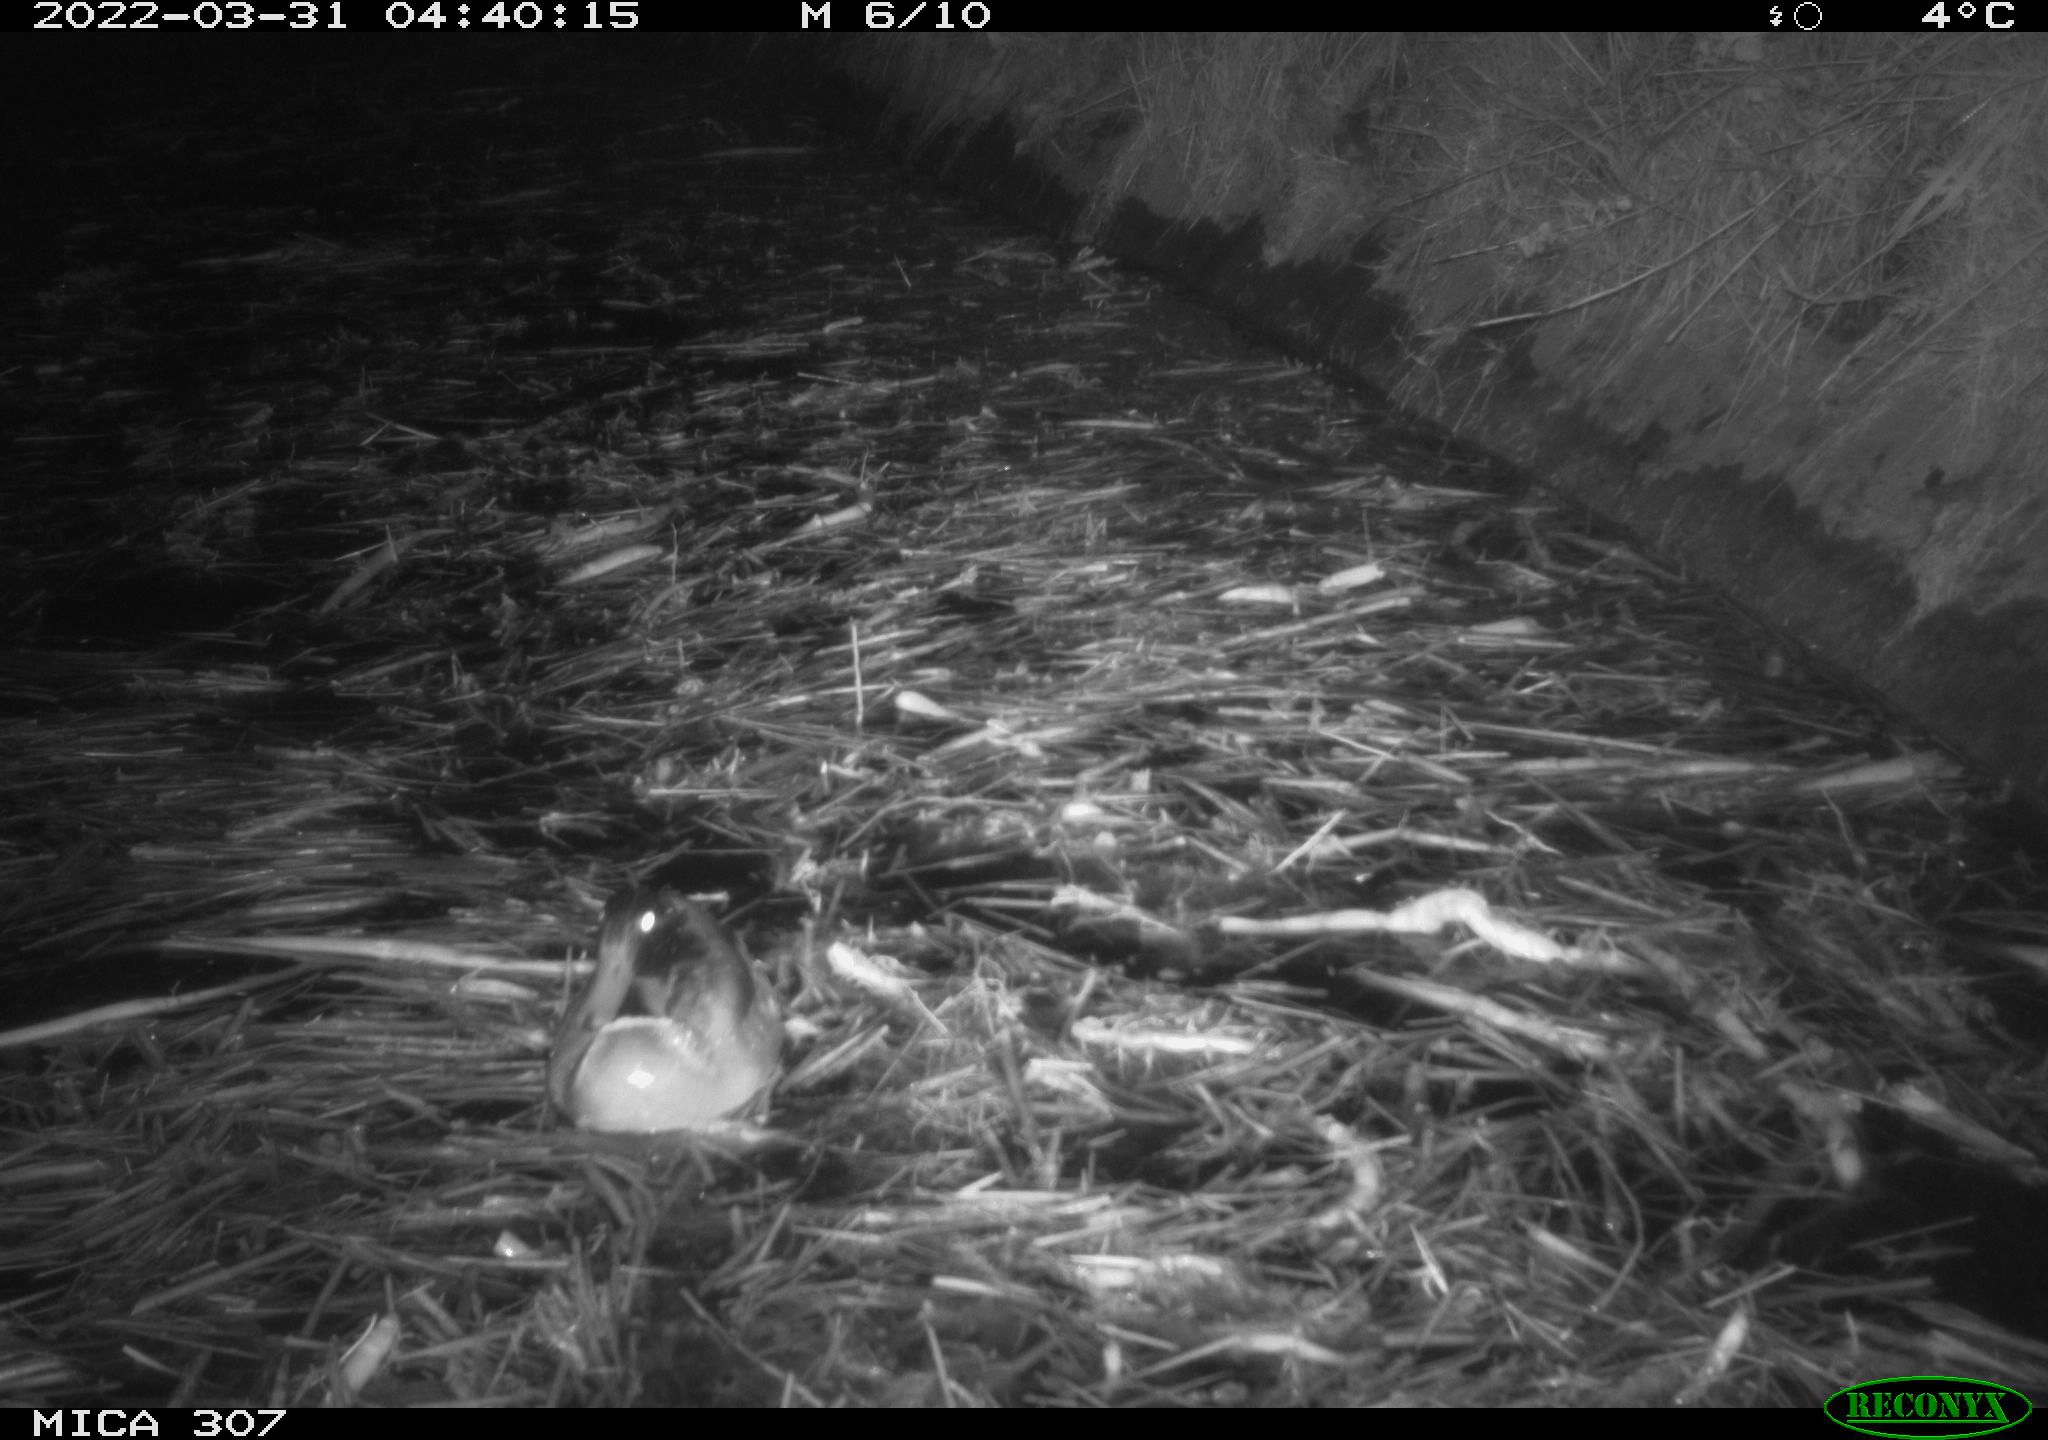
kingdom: Animalia
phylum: Chordata
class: Aves
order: Anseriformes
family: Anatidae
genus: Anas
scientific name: Anas platyrhynchos
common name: Mallard
